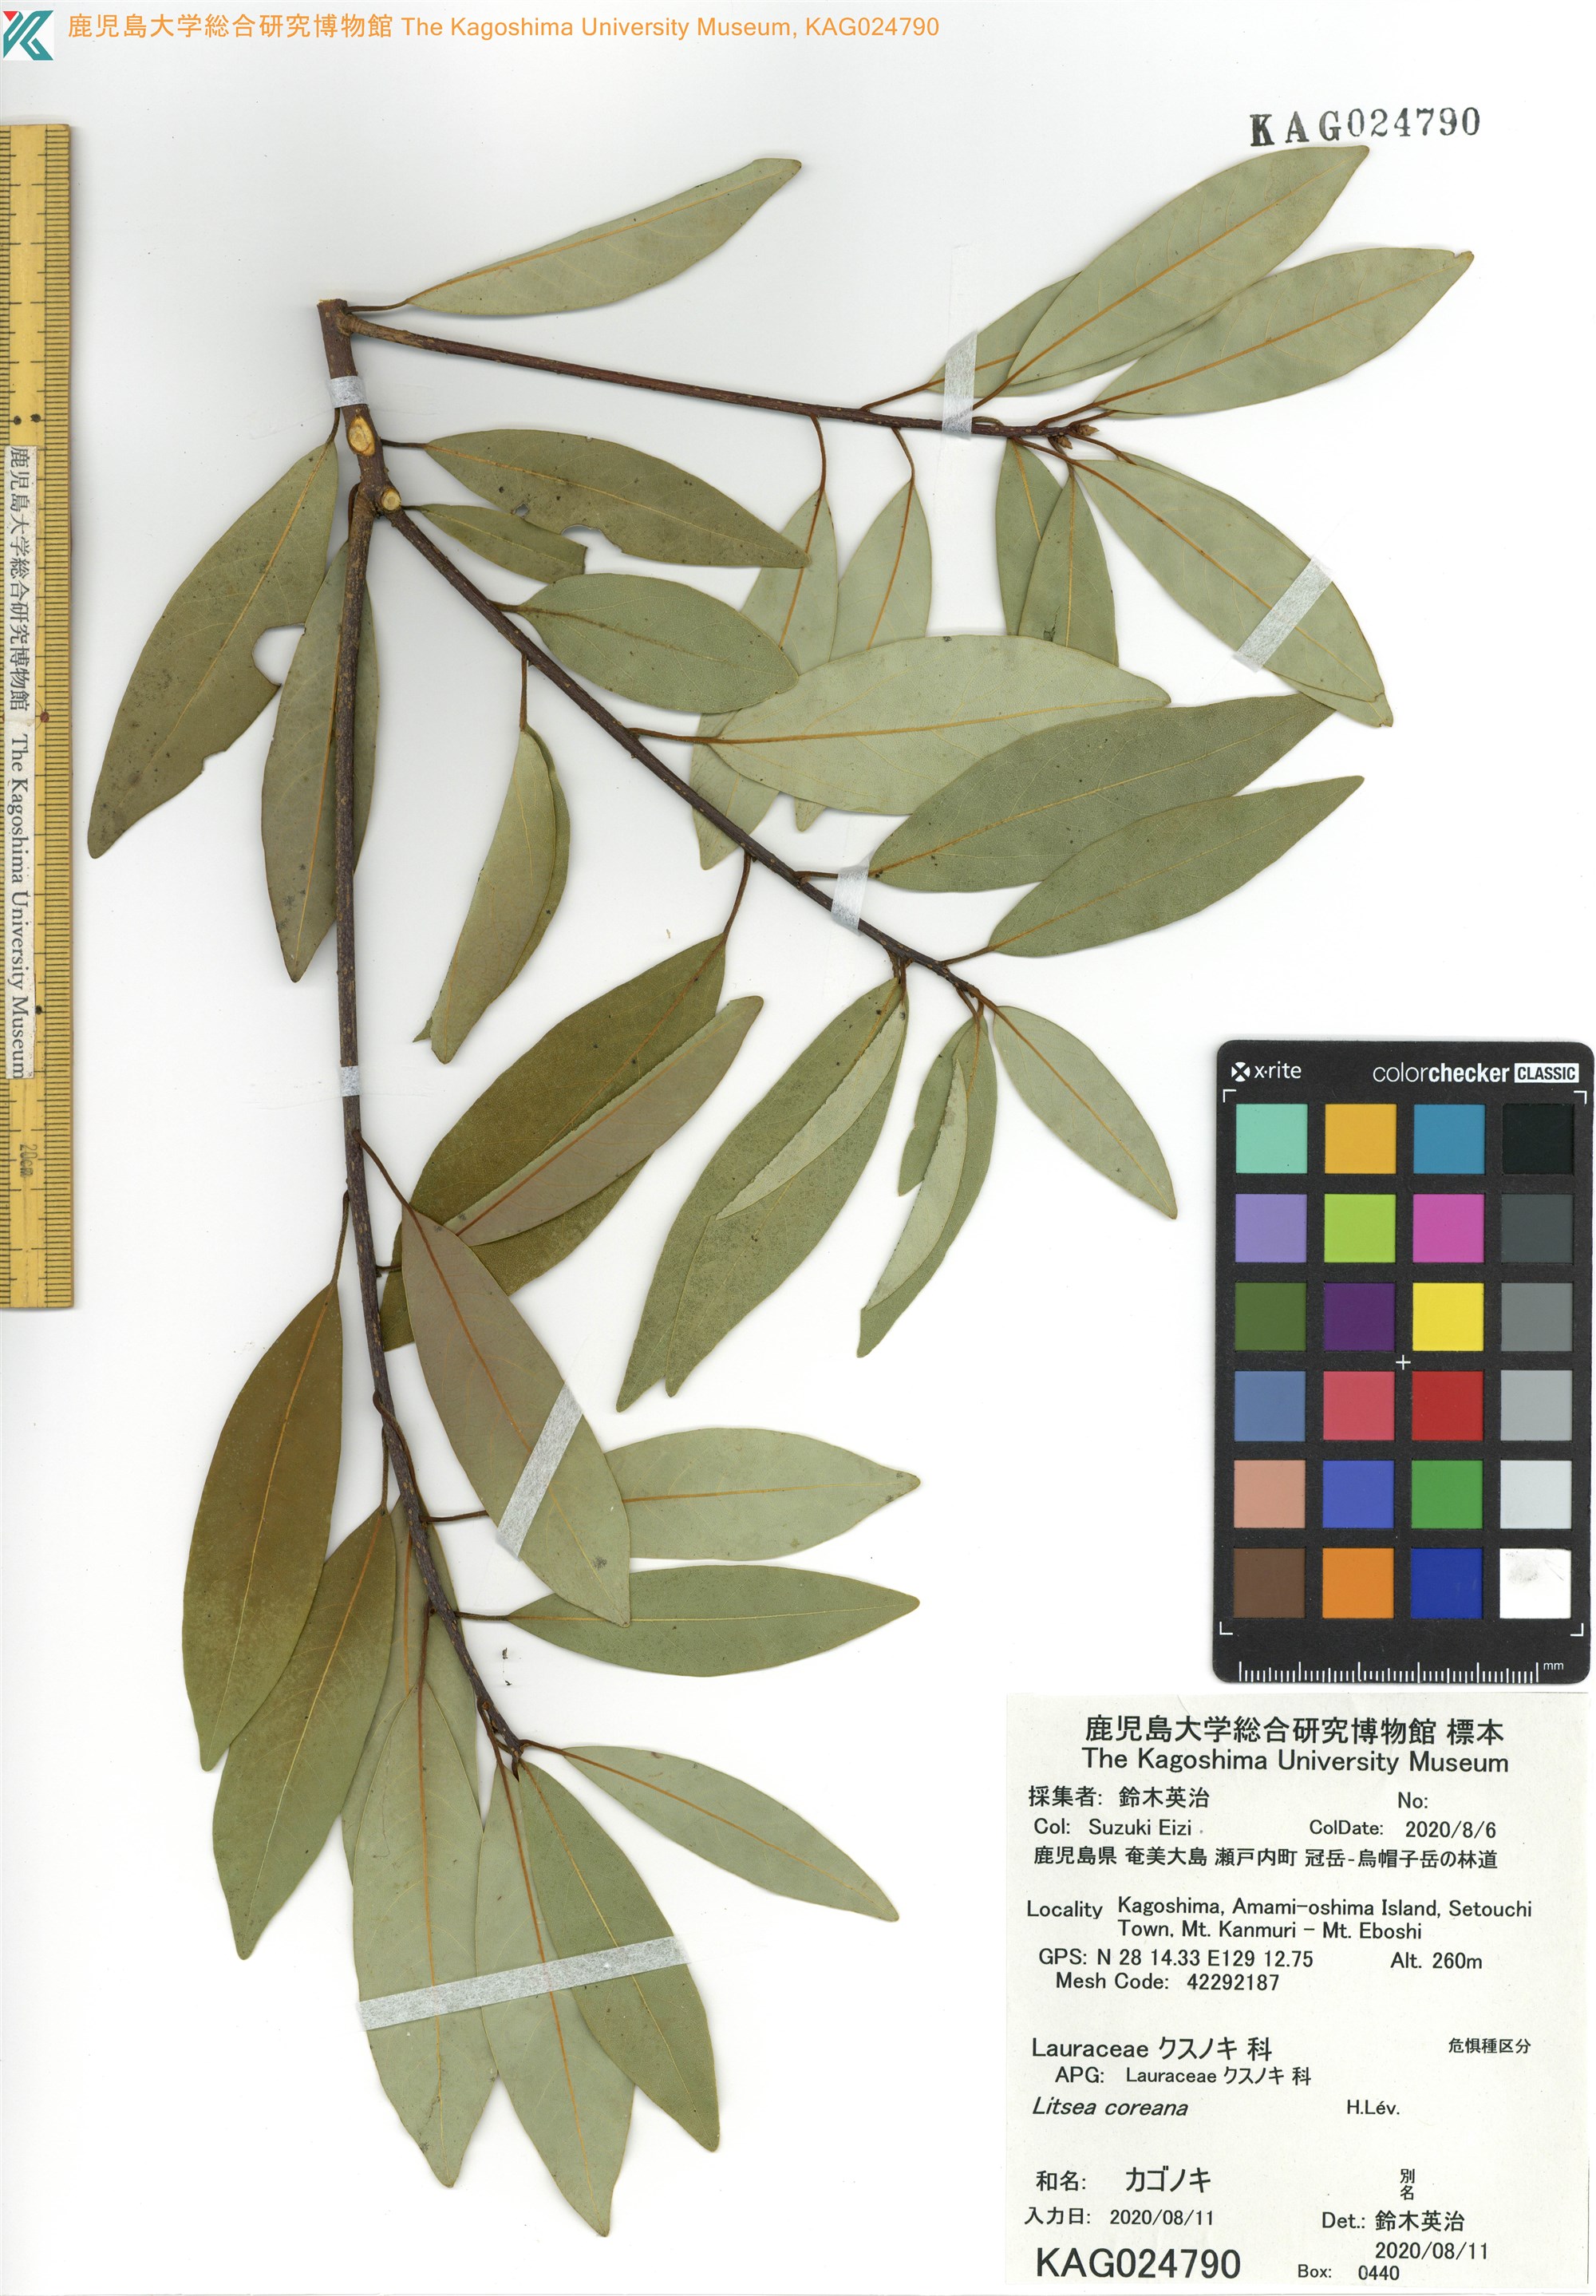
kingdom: Plantae
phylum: Tracheophyta
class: Magnoliopsida
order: Laurales
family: Lauraceae
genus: Litsea
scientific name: Litsea coreana
